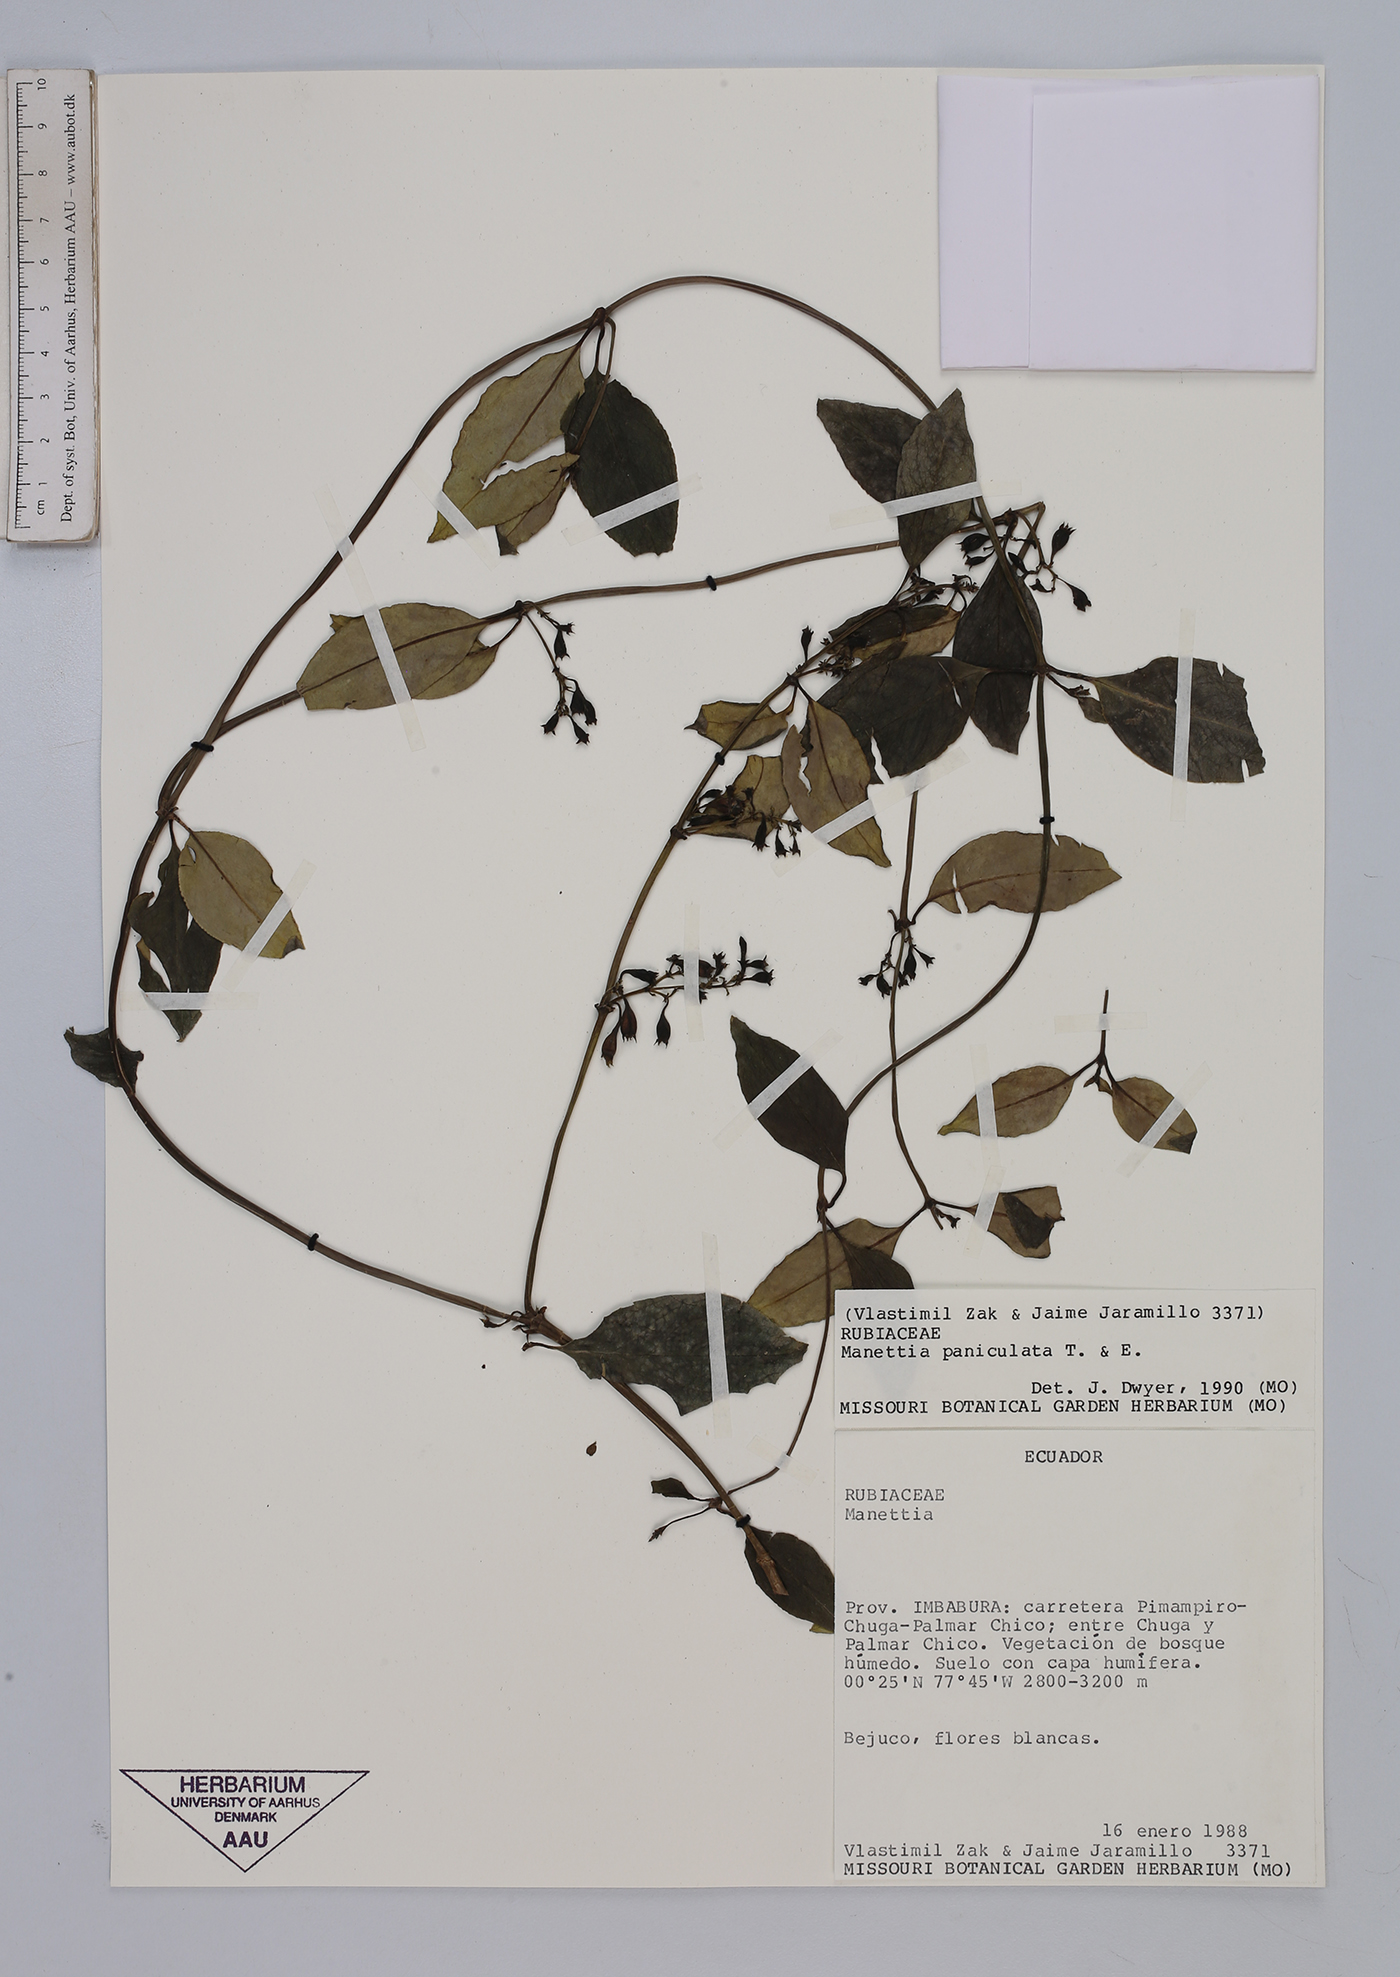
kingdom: Plantae
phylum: Tracheophyta
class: Magnoliopsida
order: Gentianales
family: Rubiaceae
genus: Manettia
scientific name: Manettia paniculata
